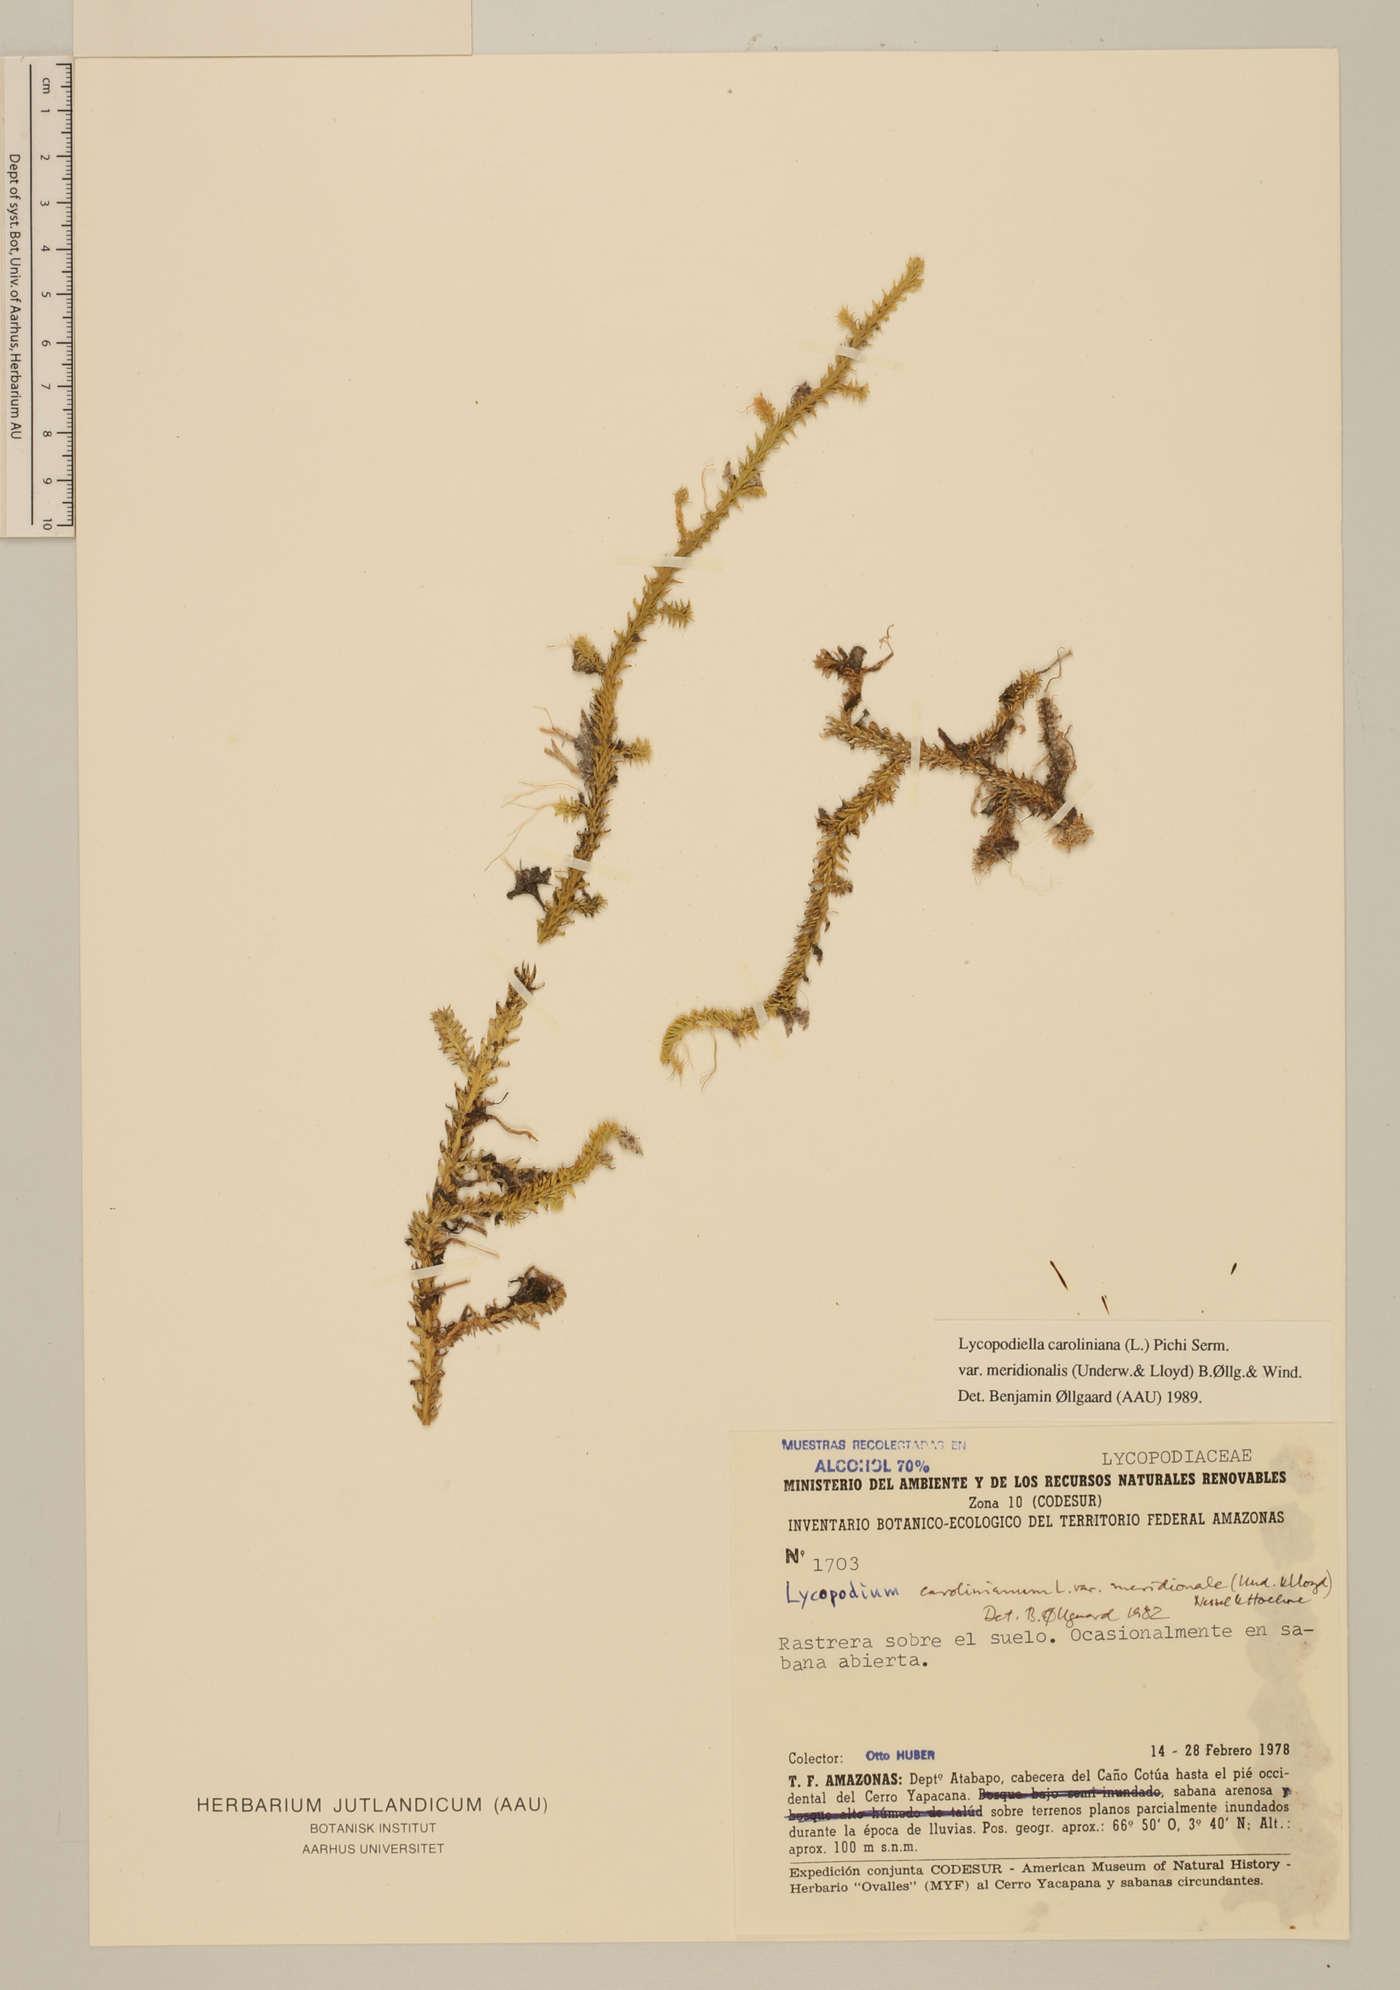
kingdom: Plantae
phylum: Tracheophyta
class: Lycopodiopsida
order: Lycopodiales
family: Lycopodiaceae
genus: Pseudolycopodiella
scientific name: Pseudolycopodiella meridionalis
